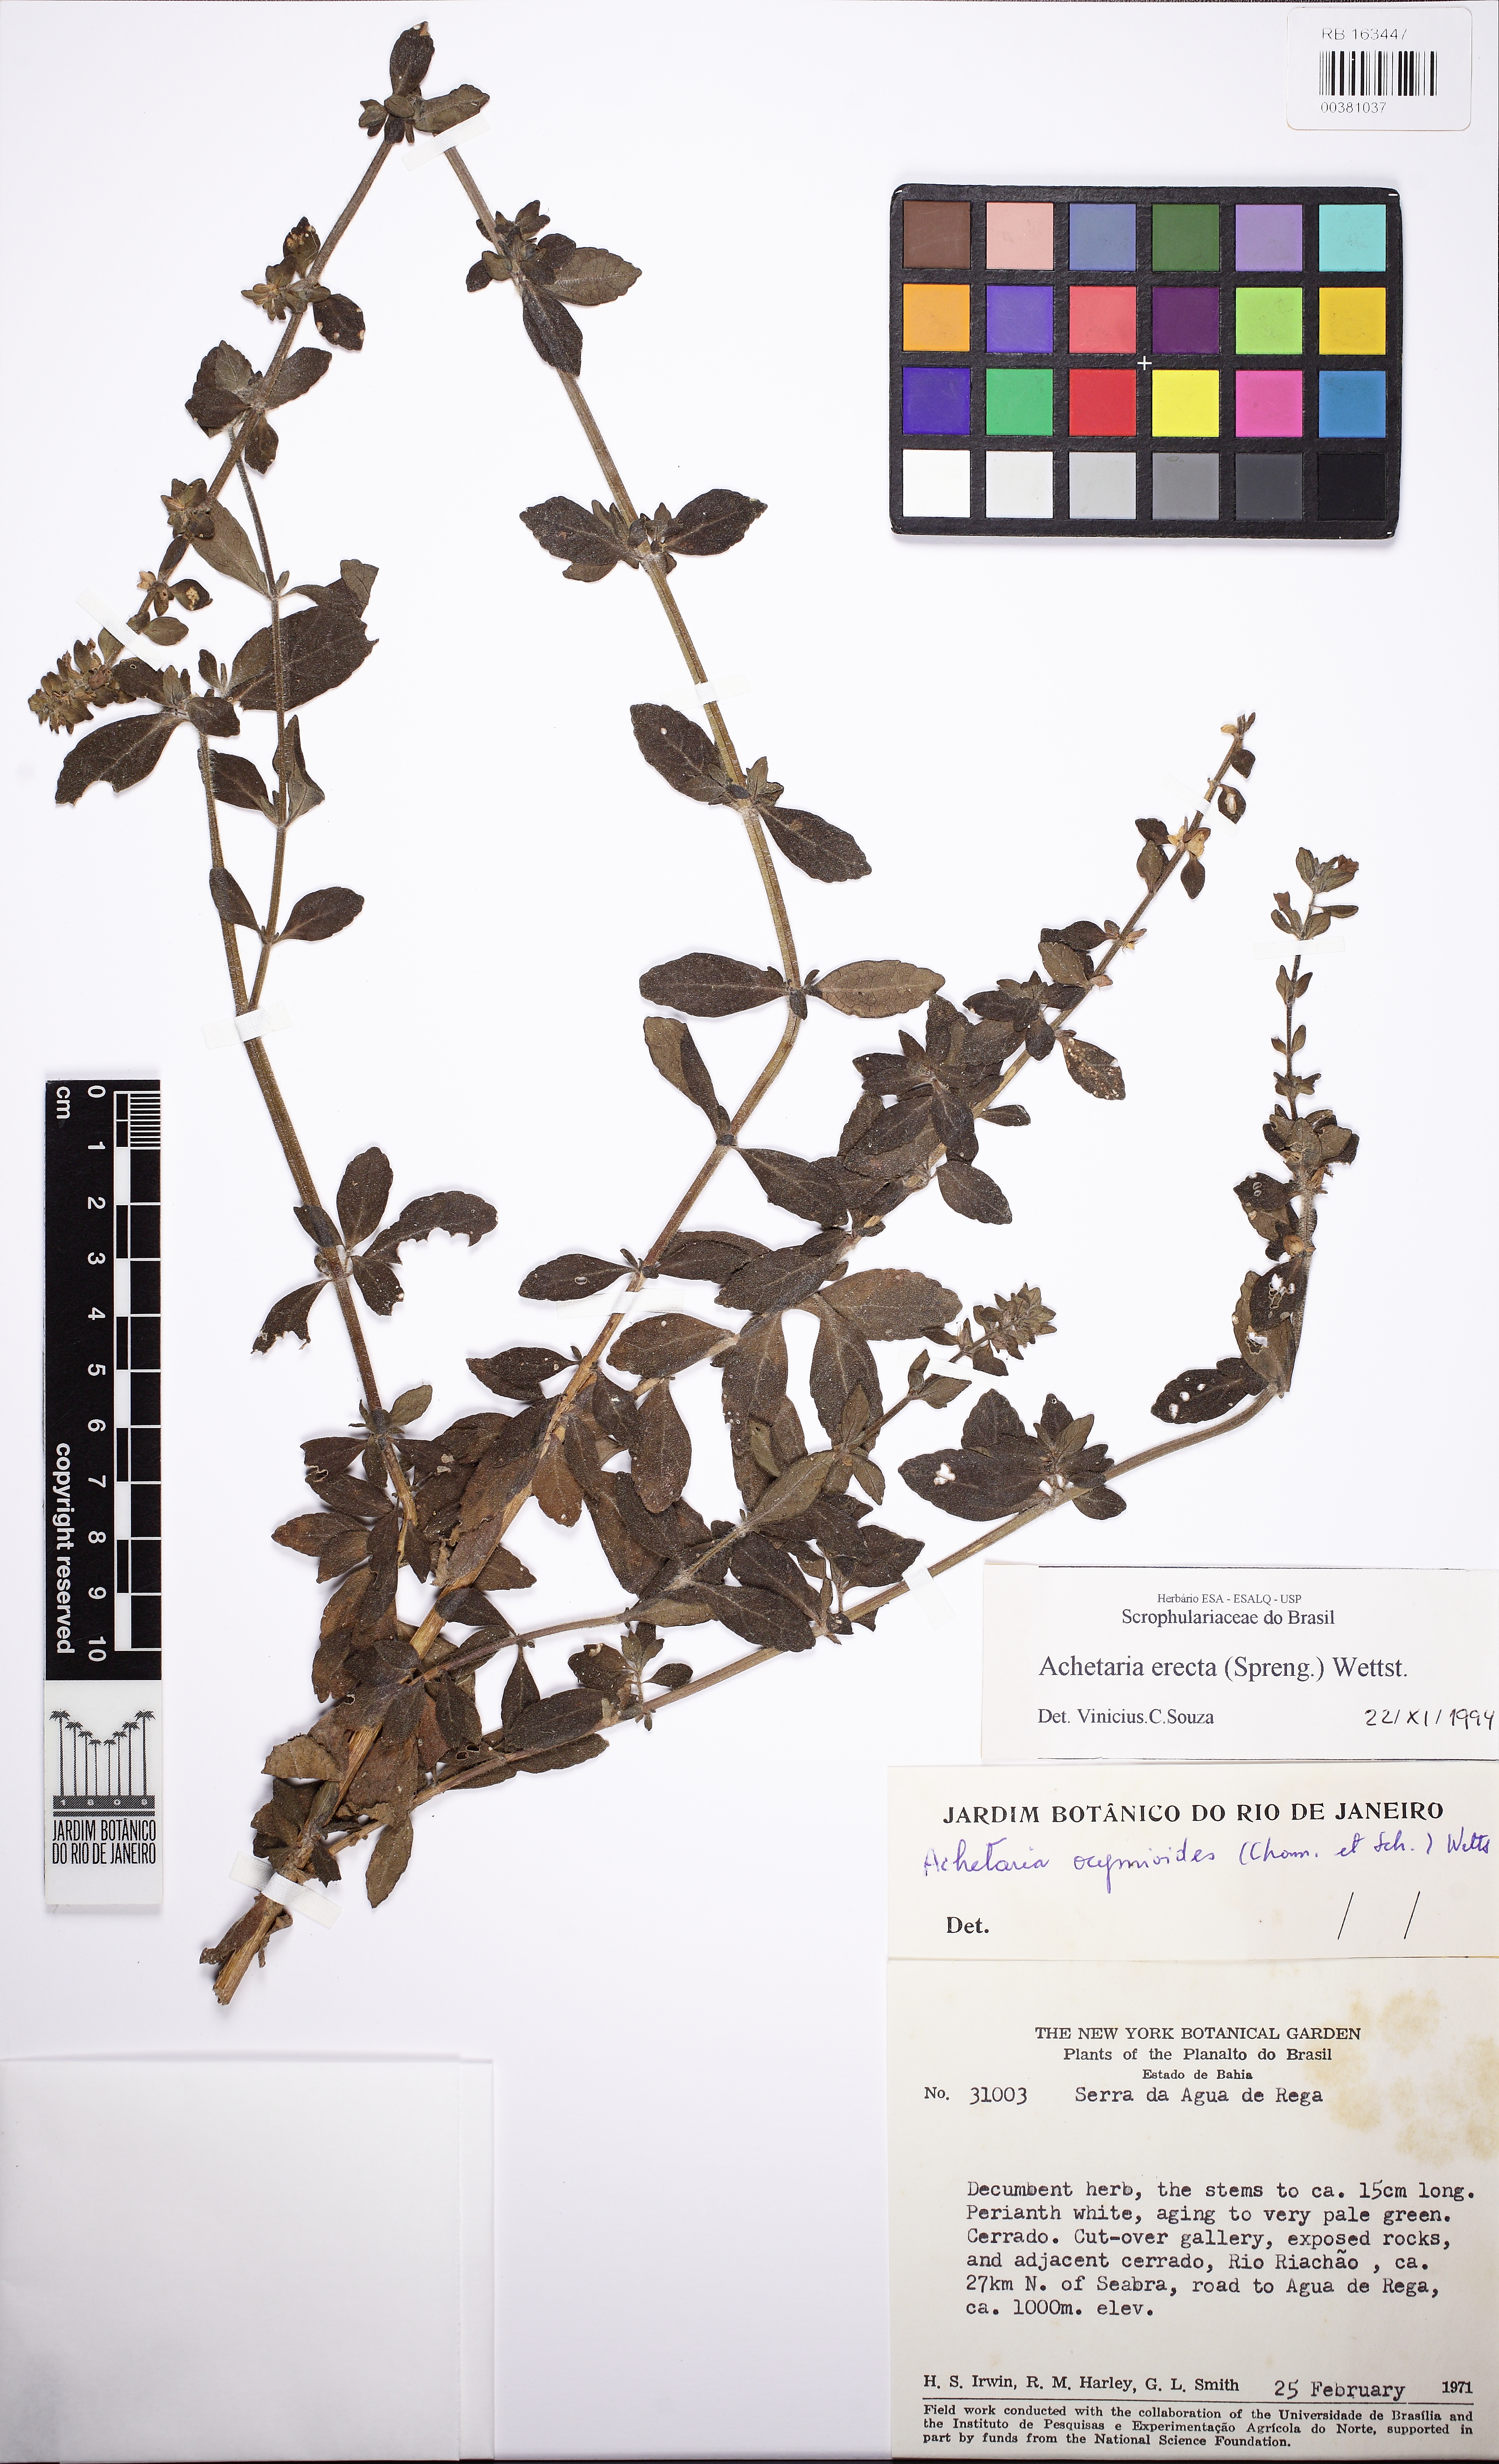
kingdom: Plantae
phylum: Tracheophyta
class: Magnoliopsida
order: Lamiales
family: Plantaginaceae
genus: Matourea
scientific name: Matourea erecta
